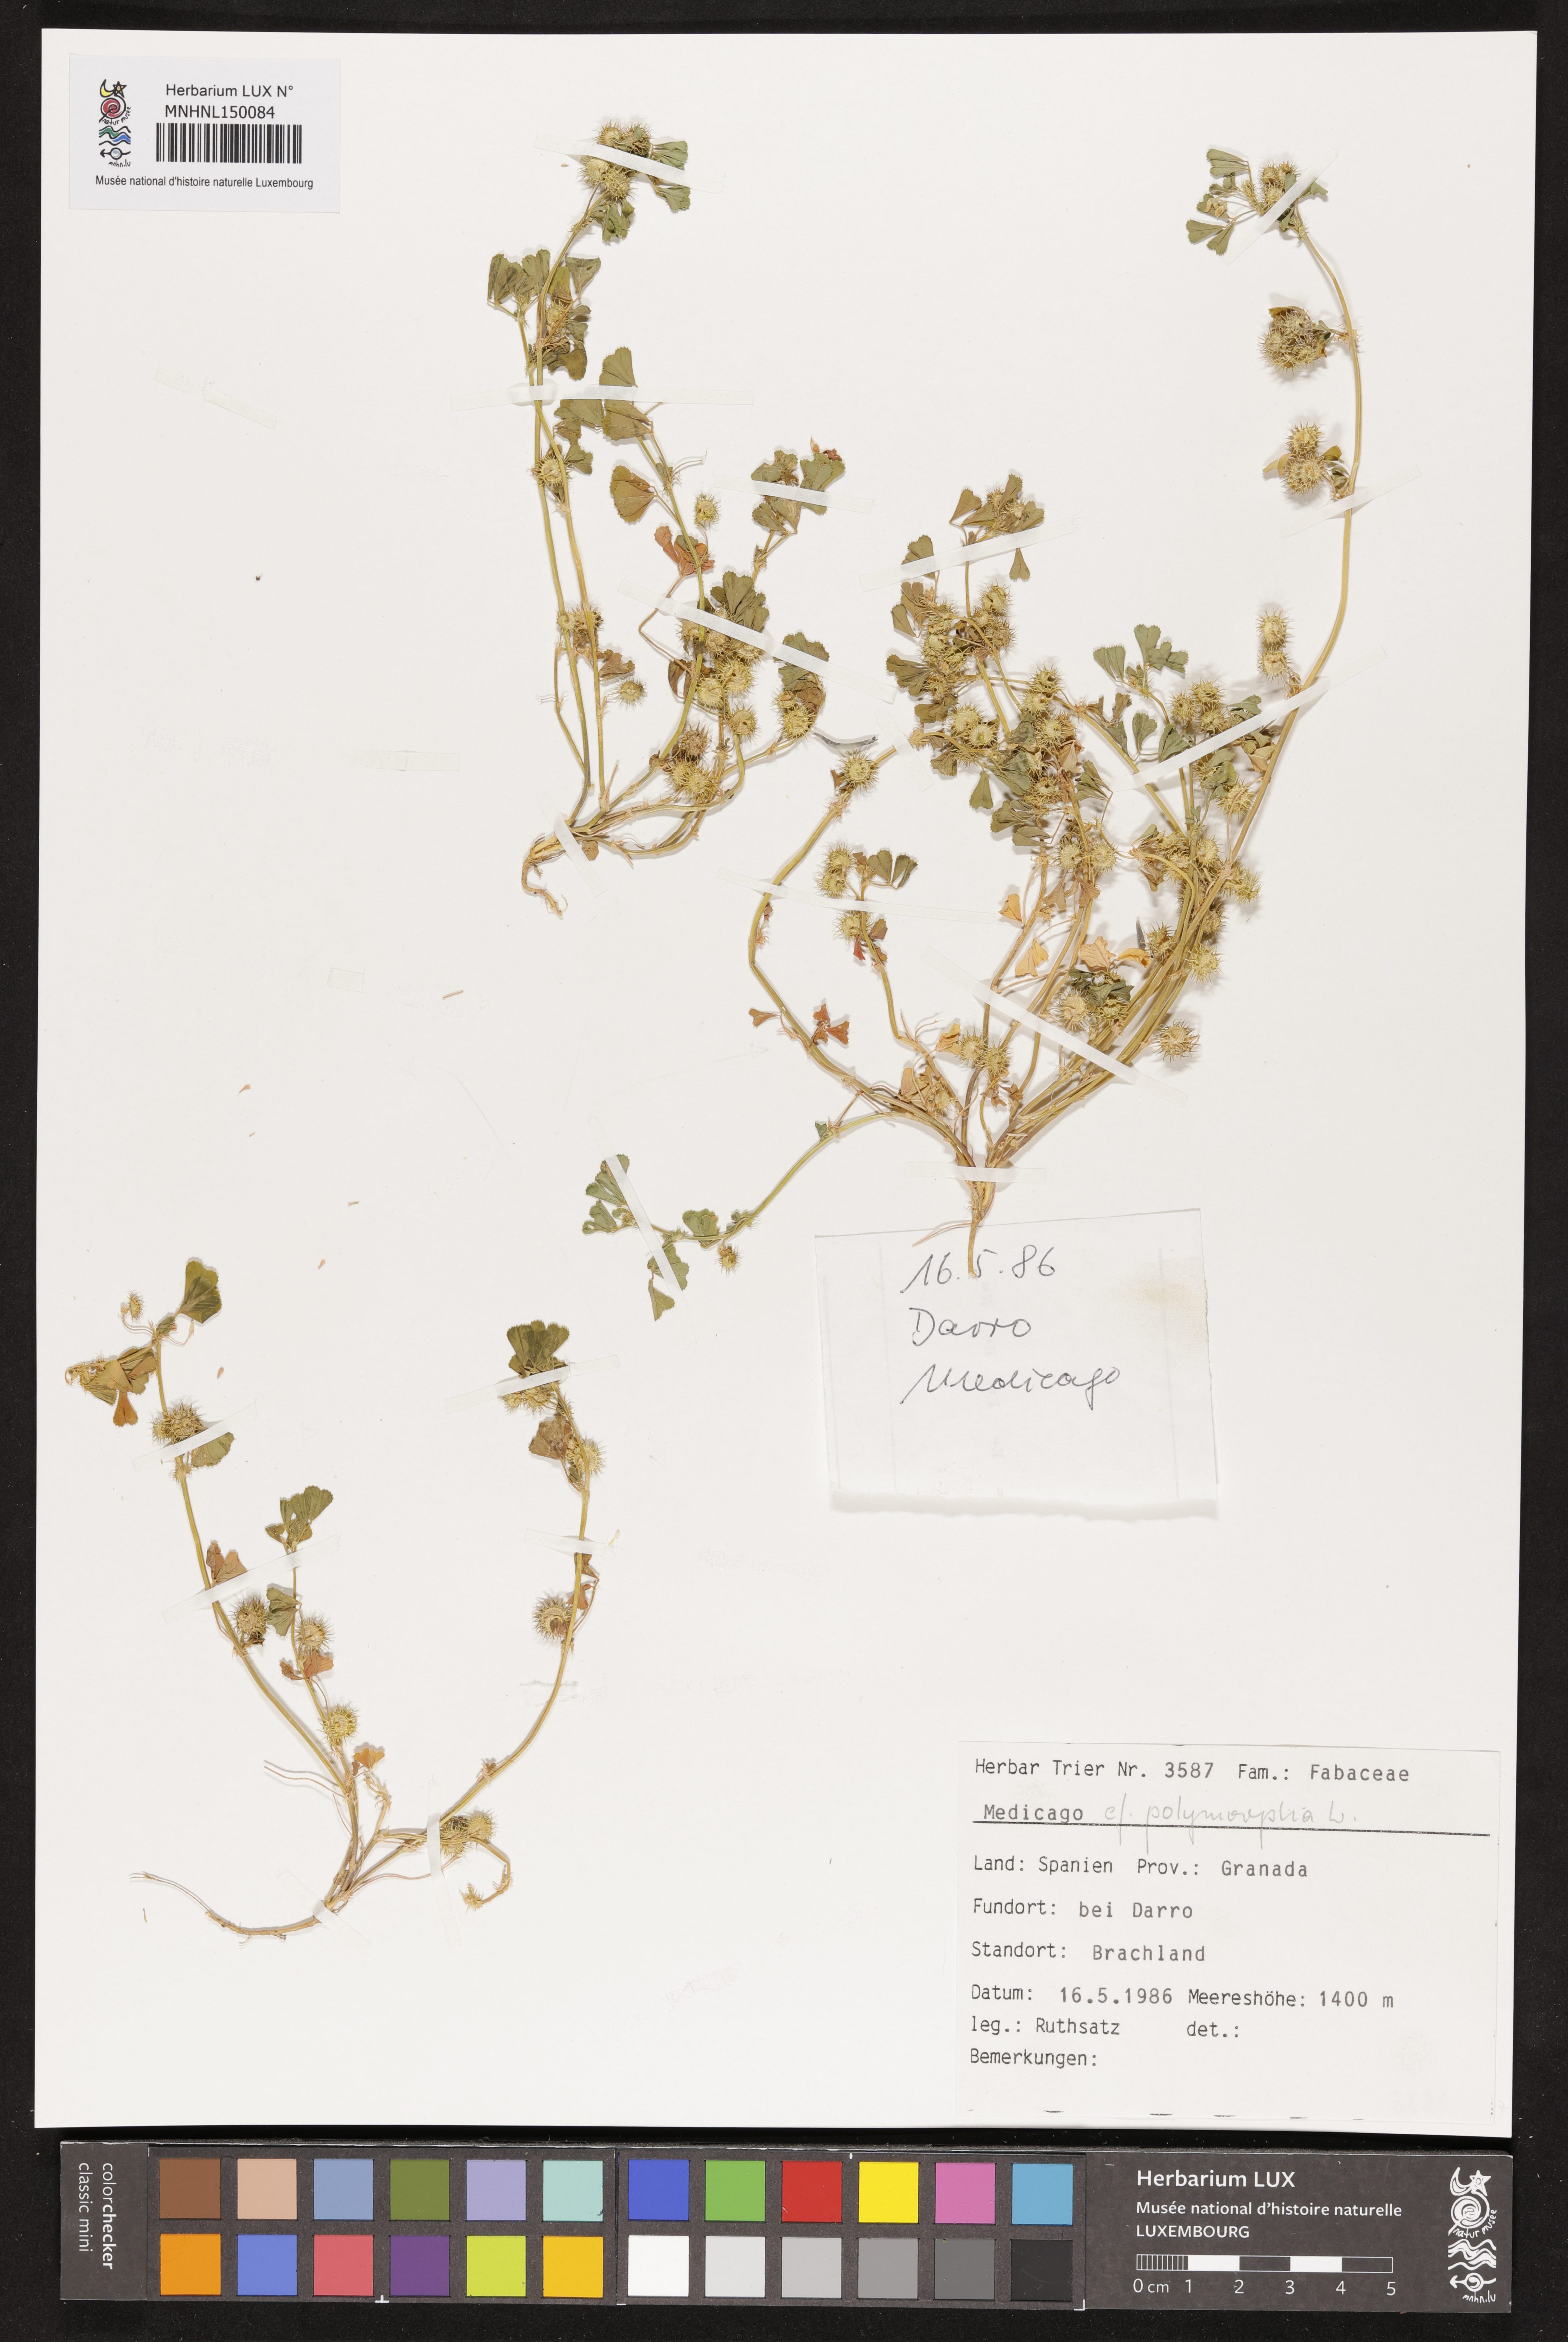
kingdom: Plantae
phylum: Tracheophyta
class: Magnoliopsida
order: Fabales
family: Fabaceae
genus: Medicago
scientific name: Medicago polymorpha
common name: Burclover
